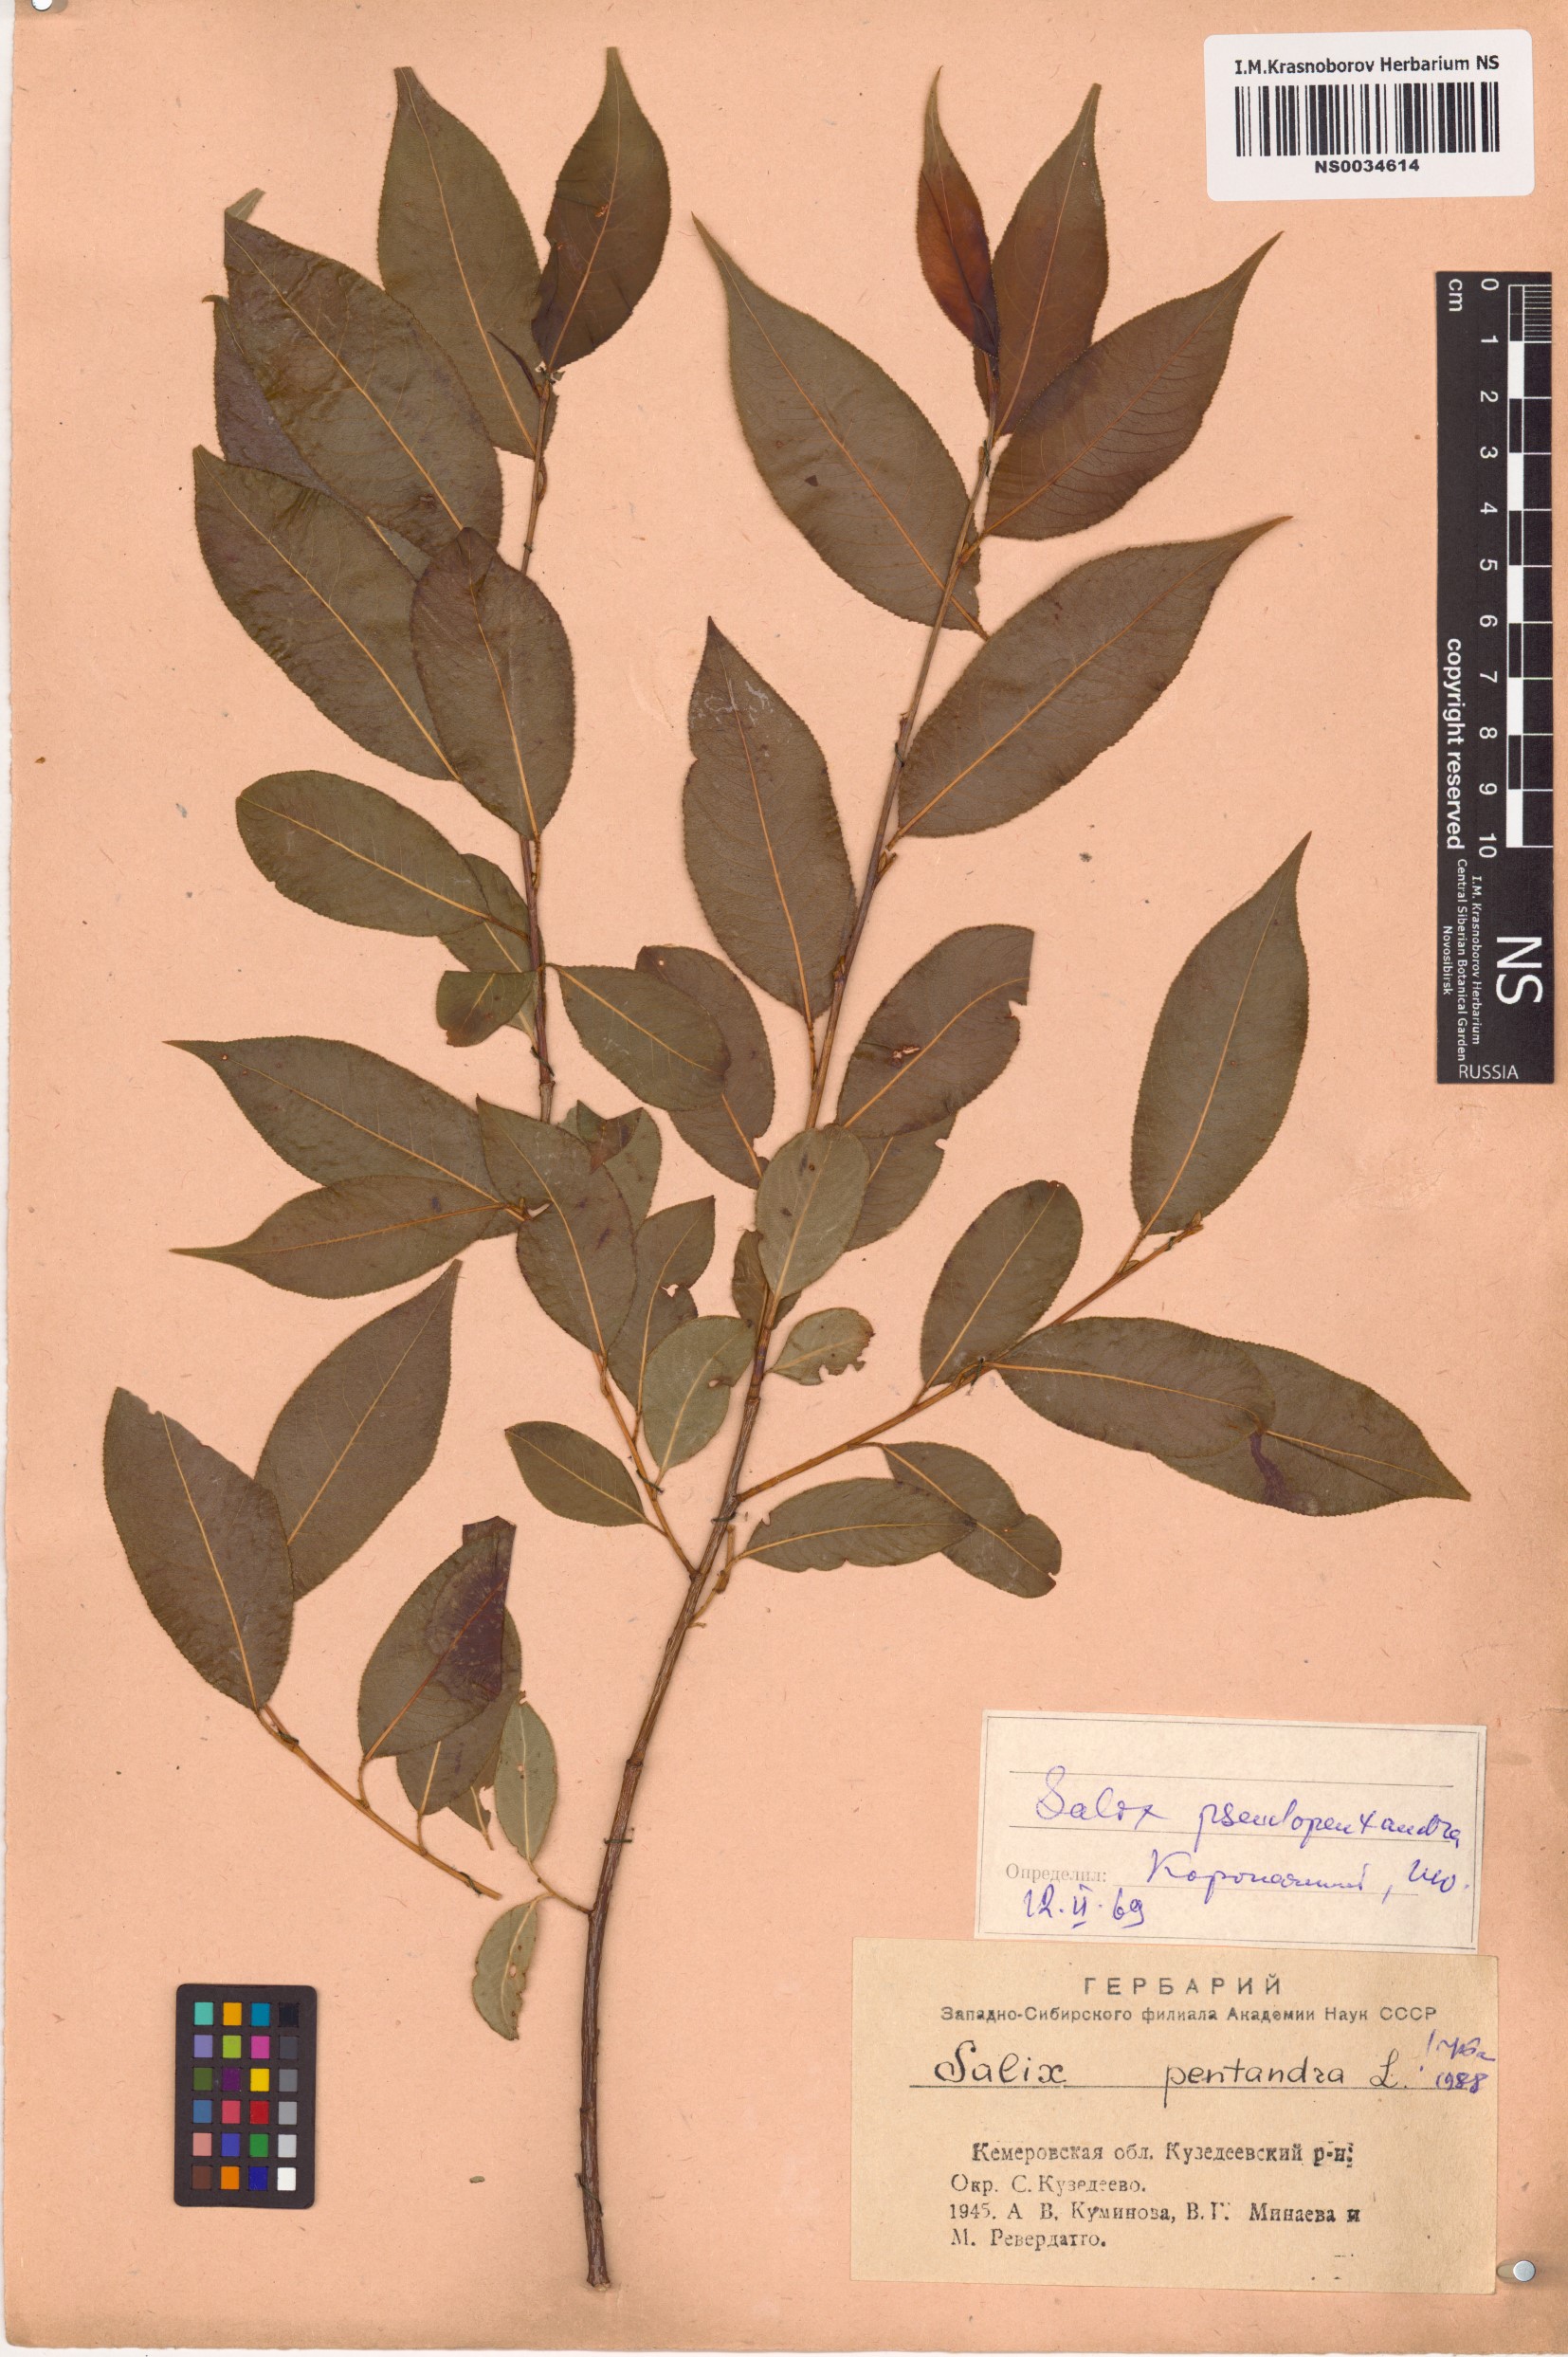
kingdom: Plantae
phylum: Tracheophyta
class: Magnoliopsida
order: Malpighiales
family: Salicaceae
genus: Salix
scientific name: Salix pentandra
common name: Bay willow
